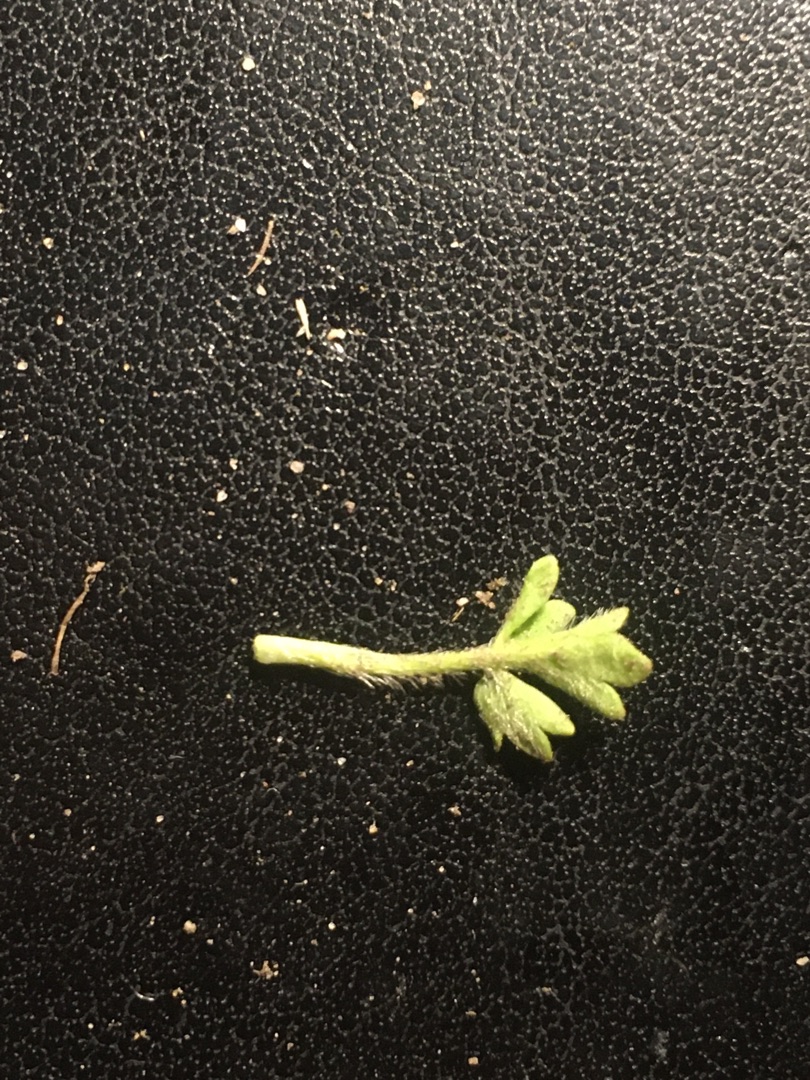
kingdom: Plantae
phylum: Tracheophyta
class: Magnoliopsida
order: Ranunculales
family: Ranunculaceae
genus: Ranunculus
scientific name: Ranunculus sardous
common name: Stivhåret ranunkel
